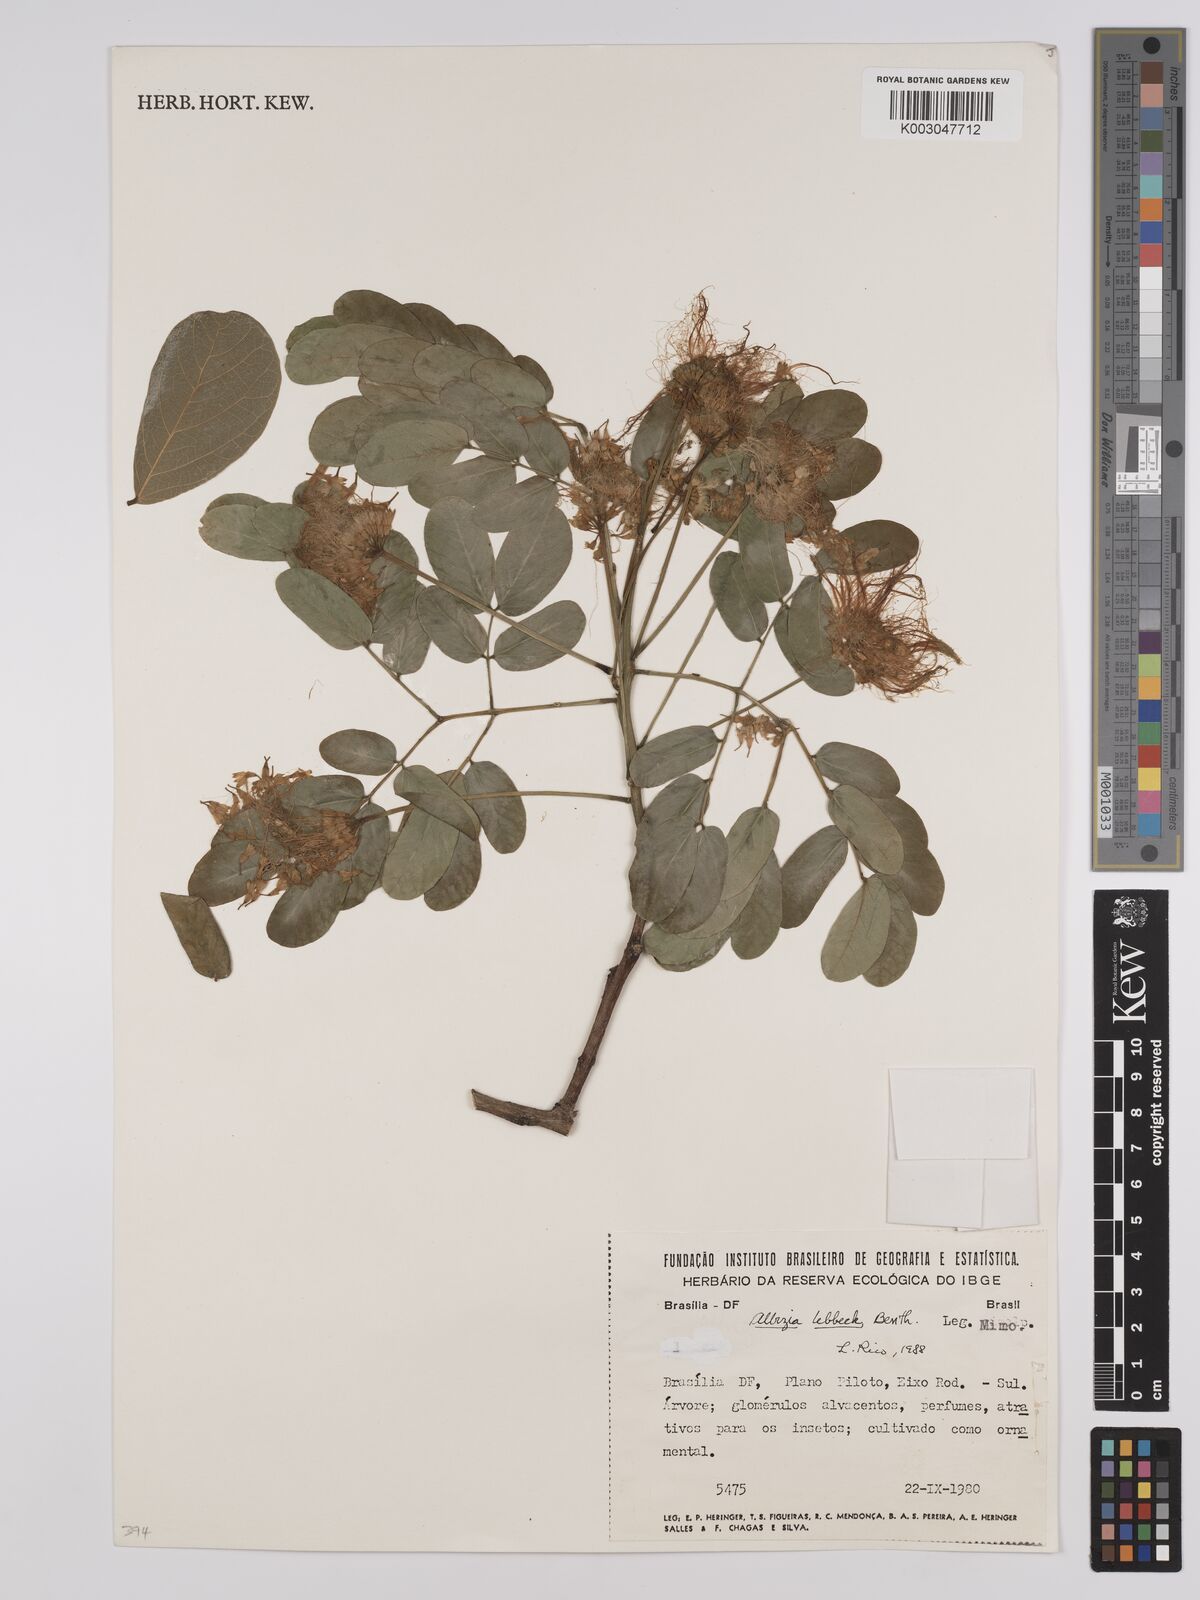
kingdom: Plantae
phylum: Tracheophyta
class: Magnoliopsida
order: Fabales
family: Fabaceae
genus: Albizia
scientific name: Albizia lebbeck
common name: Woman's tongue
